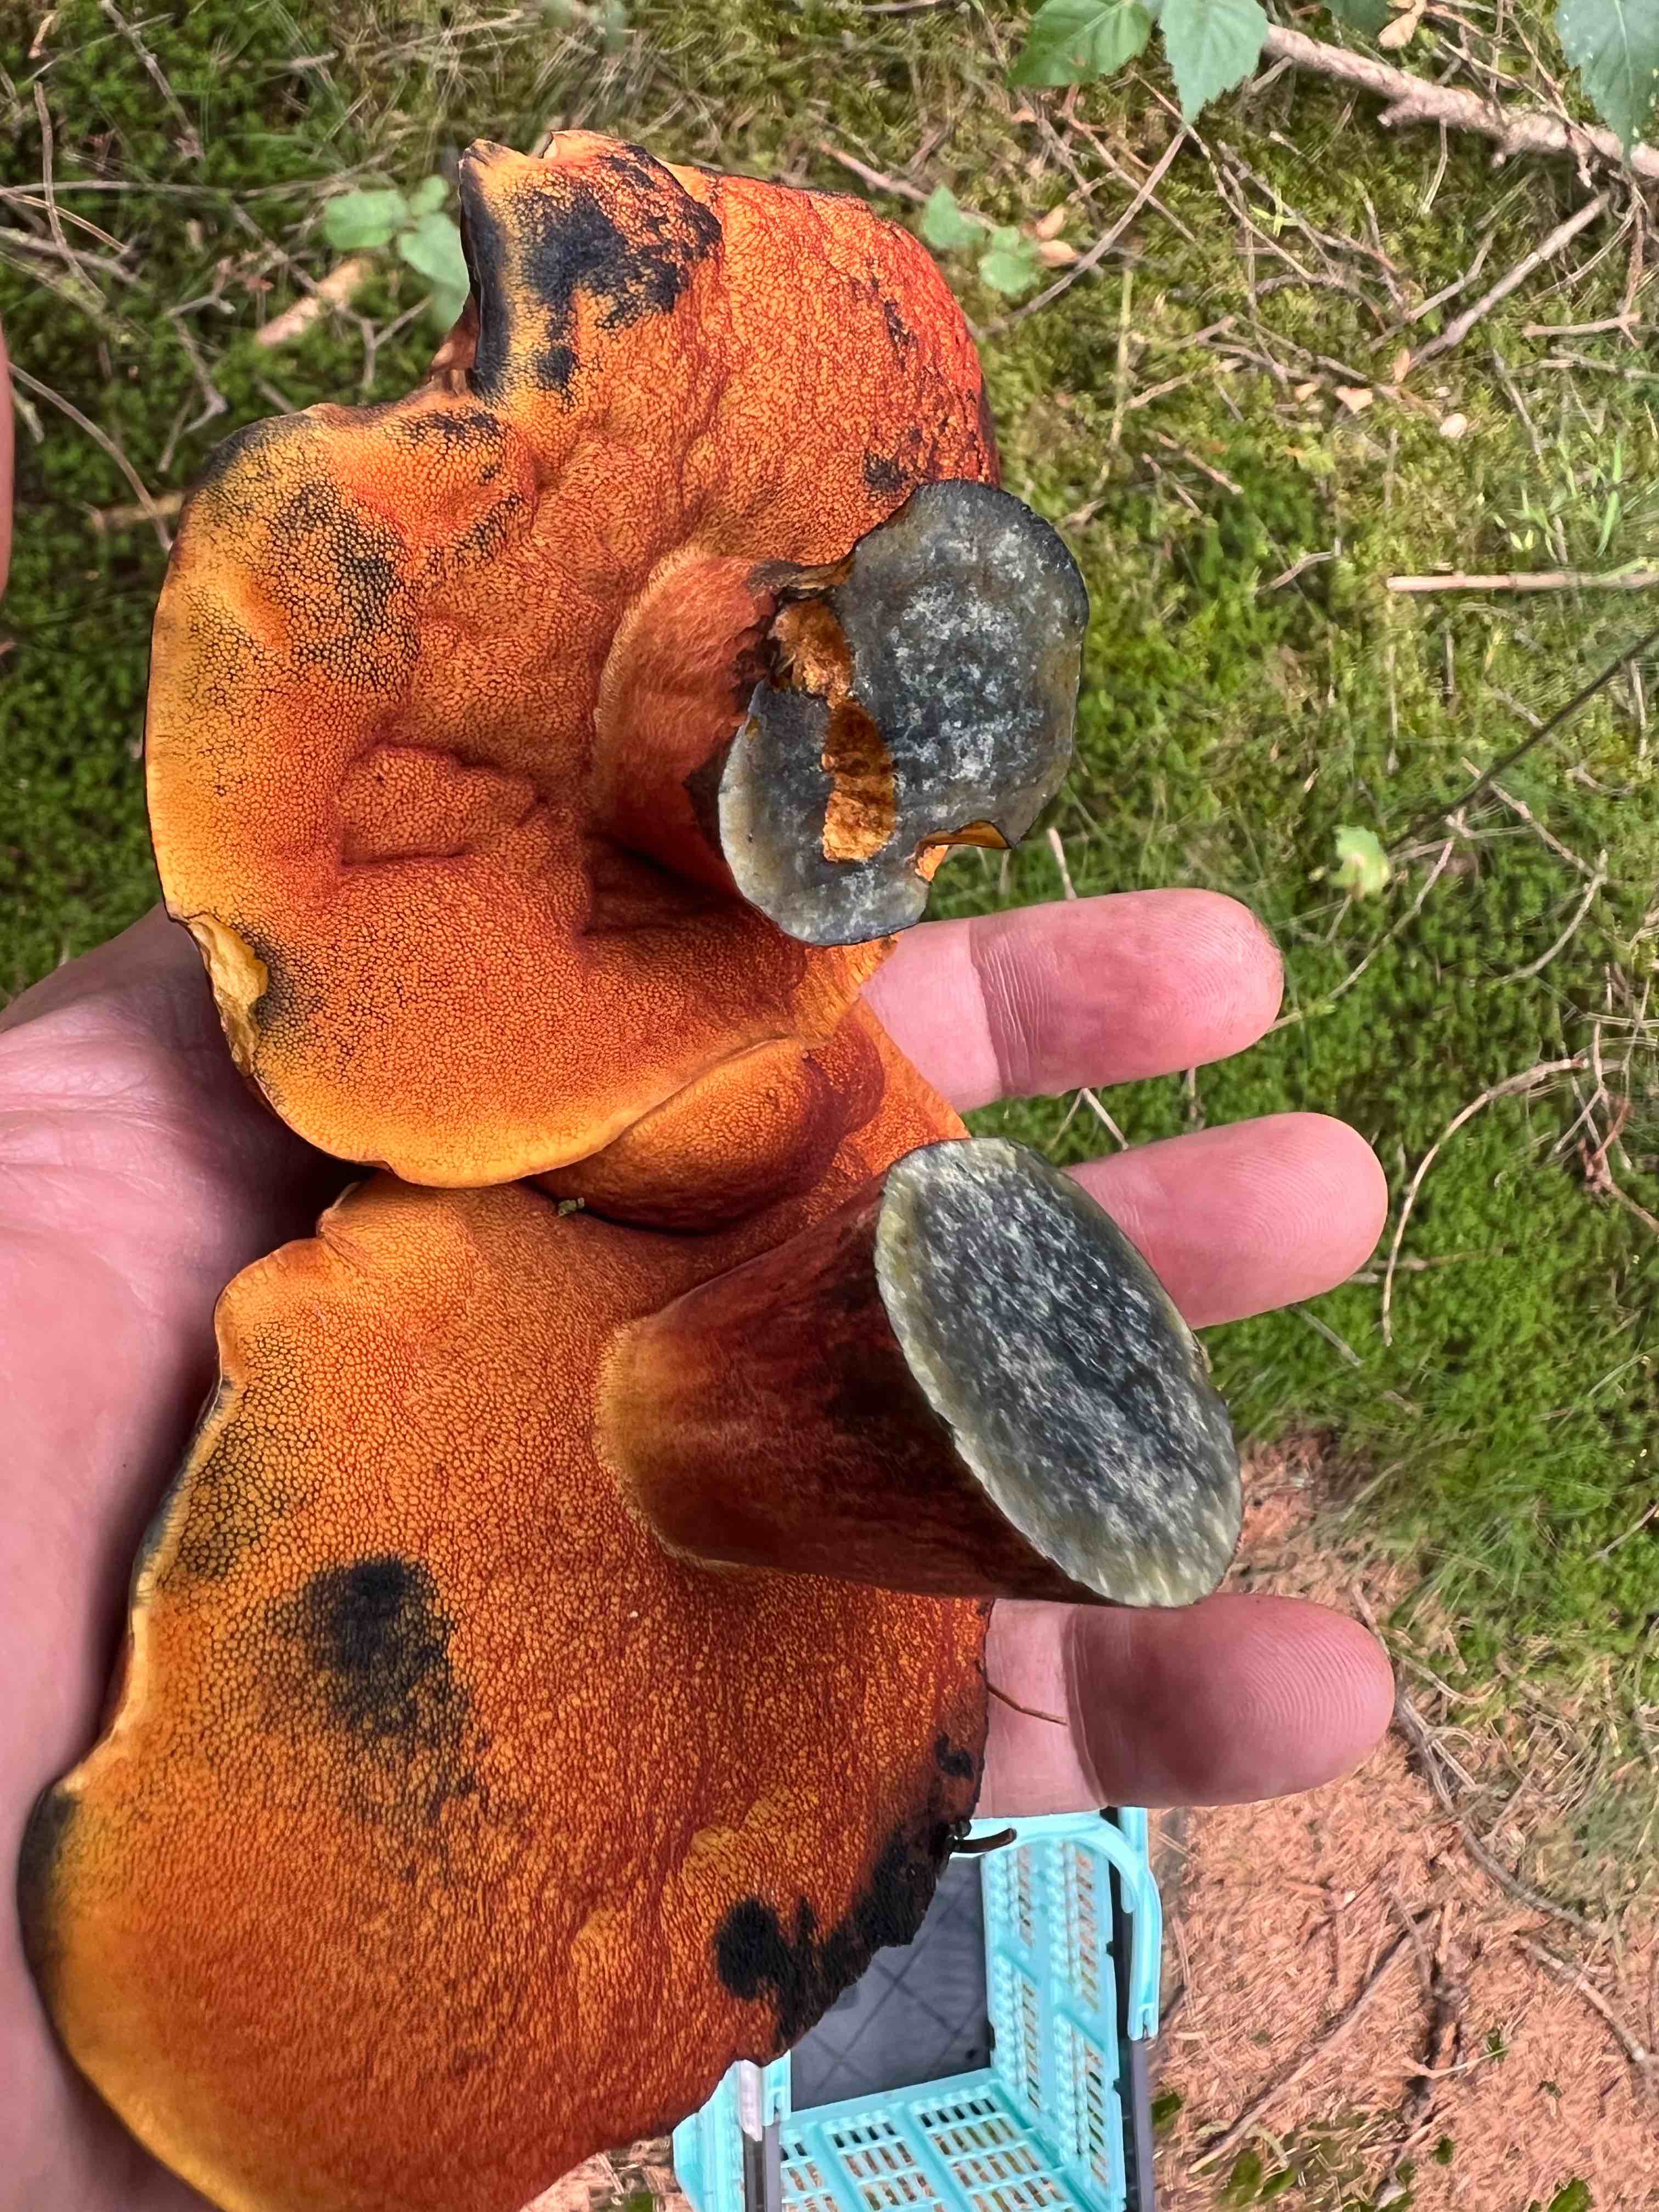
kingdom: Fungi
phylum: Basidiomycota
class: Agaricomycetes
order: Boletales
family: Boletaceae
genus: Neoboletus
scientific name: Neoboletus erythropus
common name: punktstokket indigorørhat
